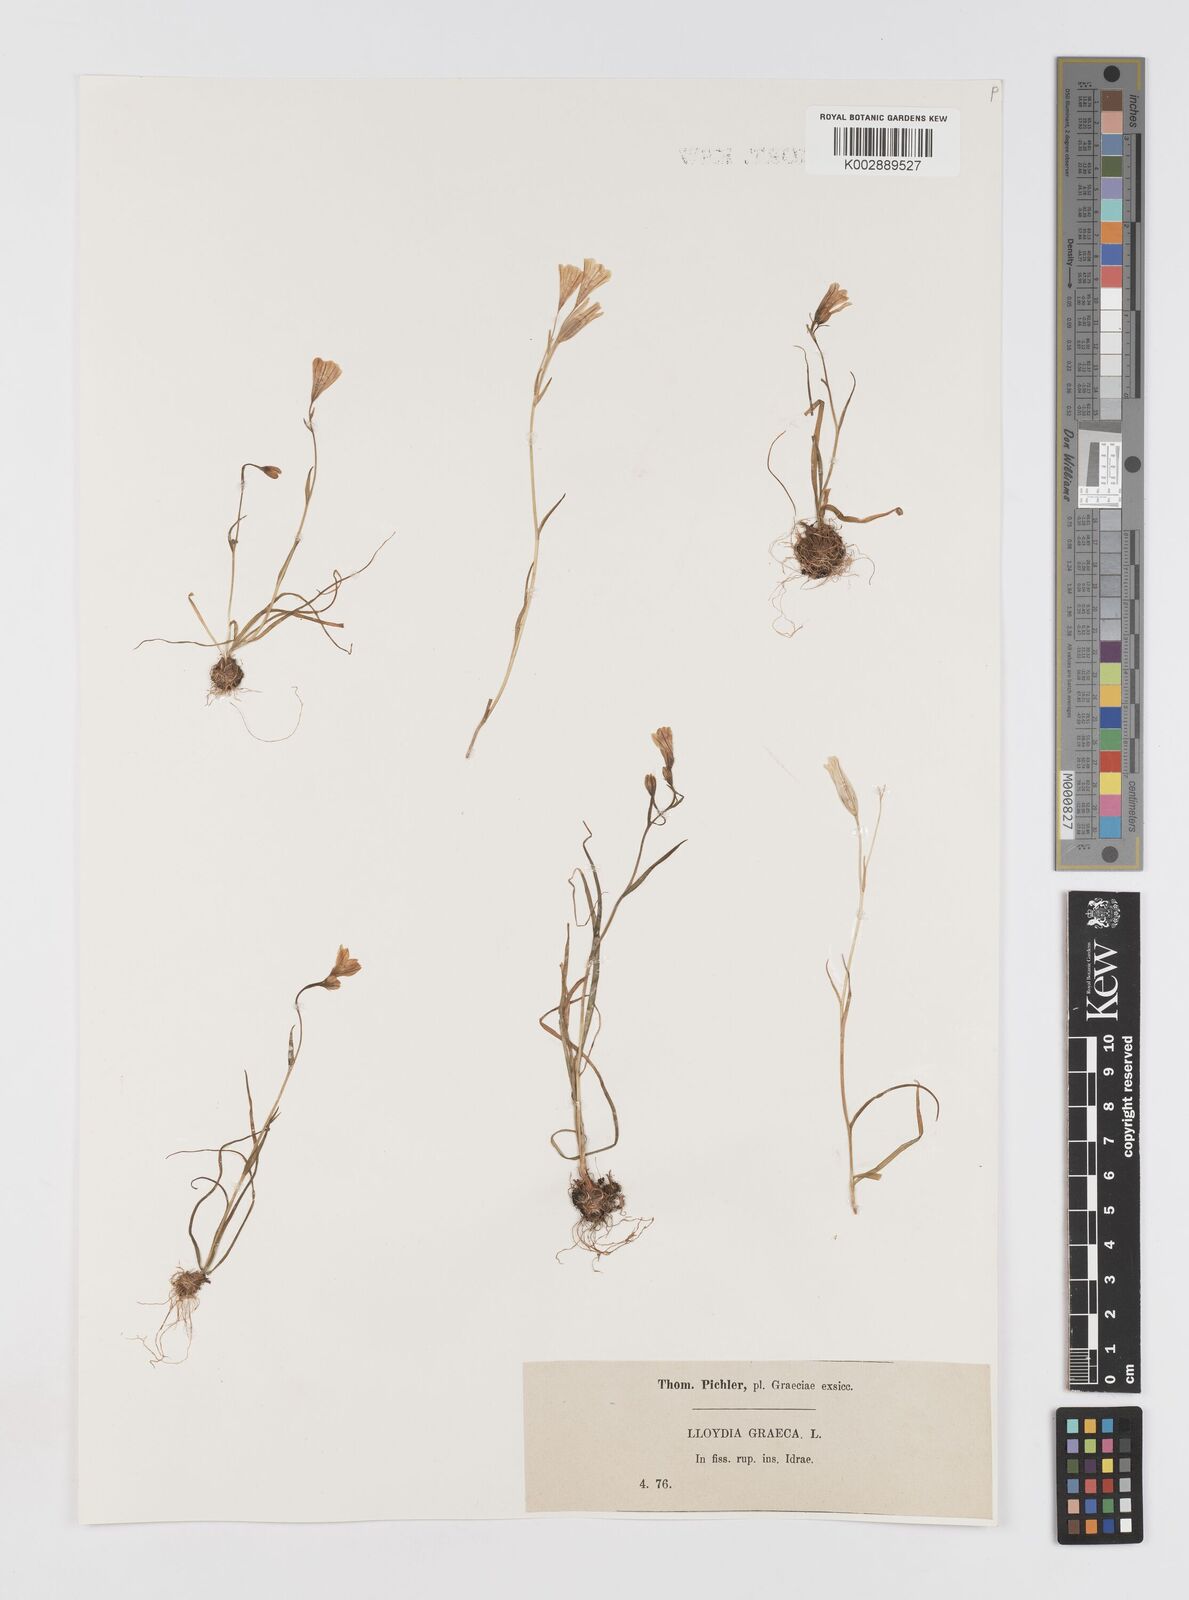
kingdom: Plantae
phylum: Tracheophyta
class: Liliopsida
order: Liliales
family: Liliaceae
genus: Gagea
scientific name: Gagea graeca
